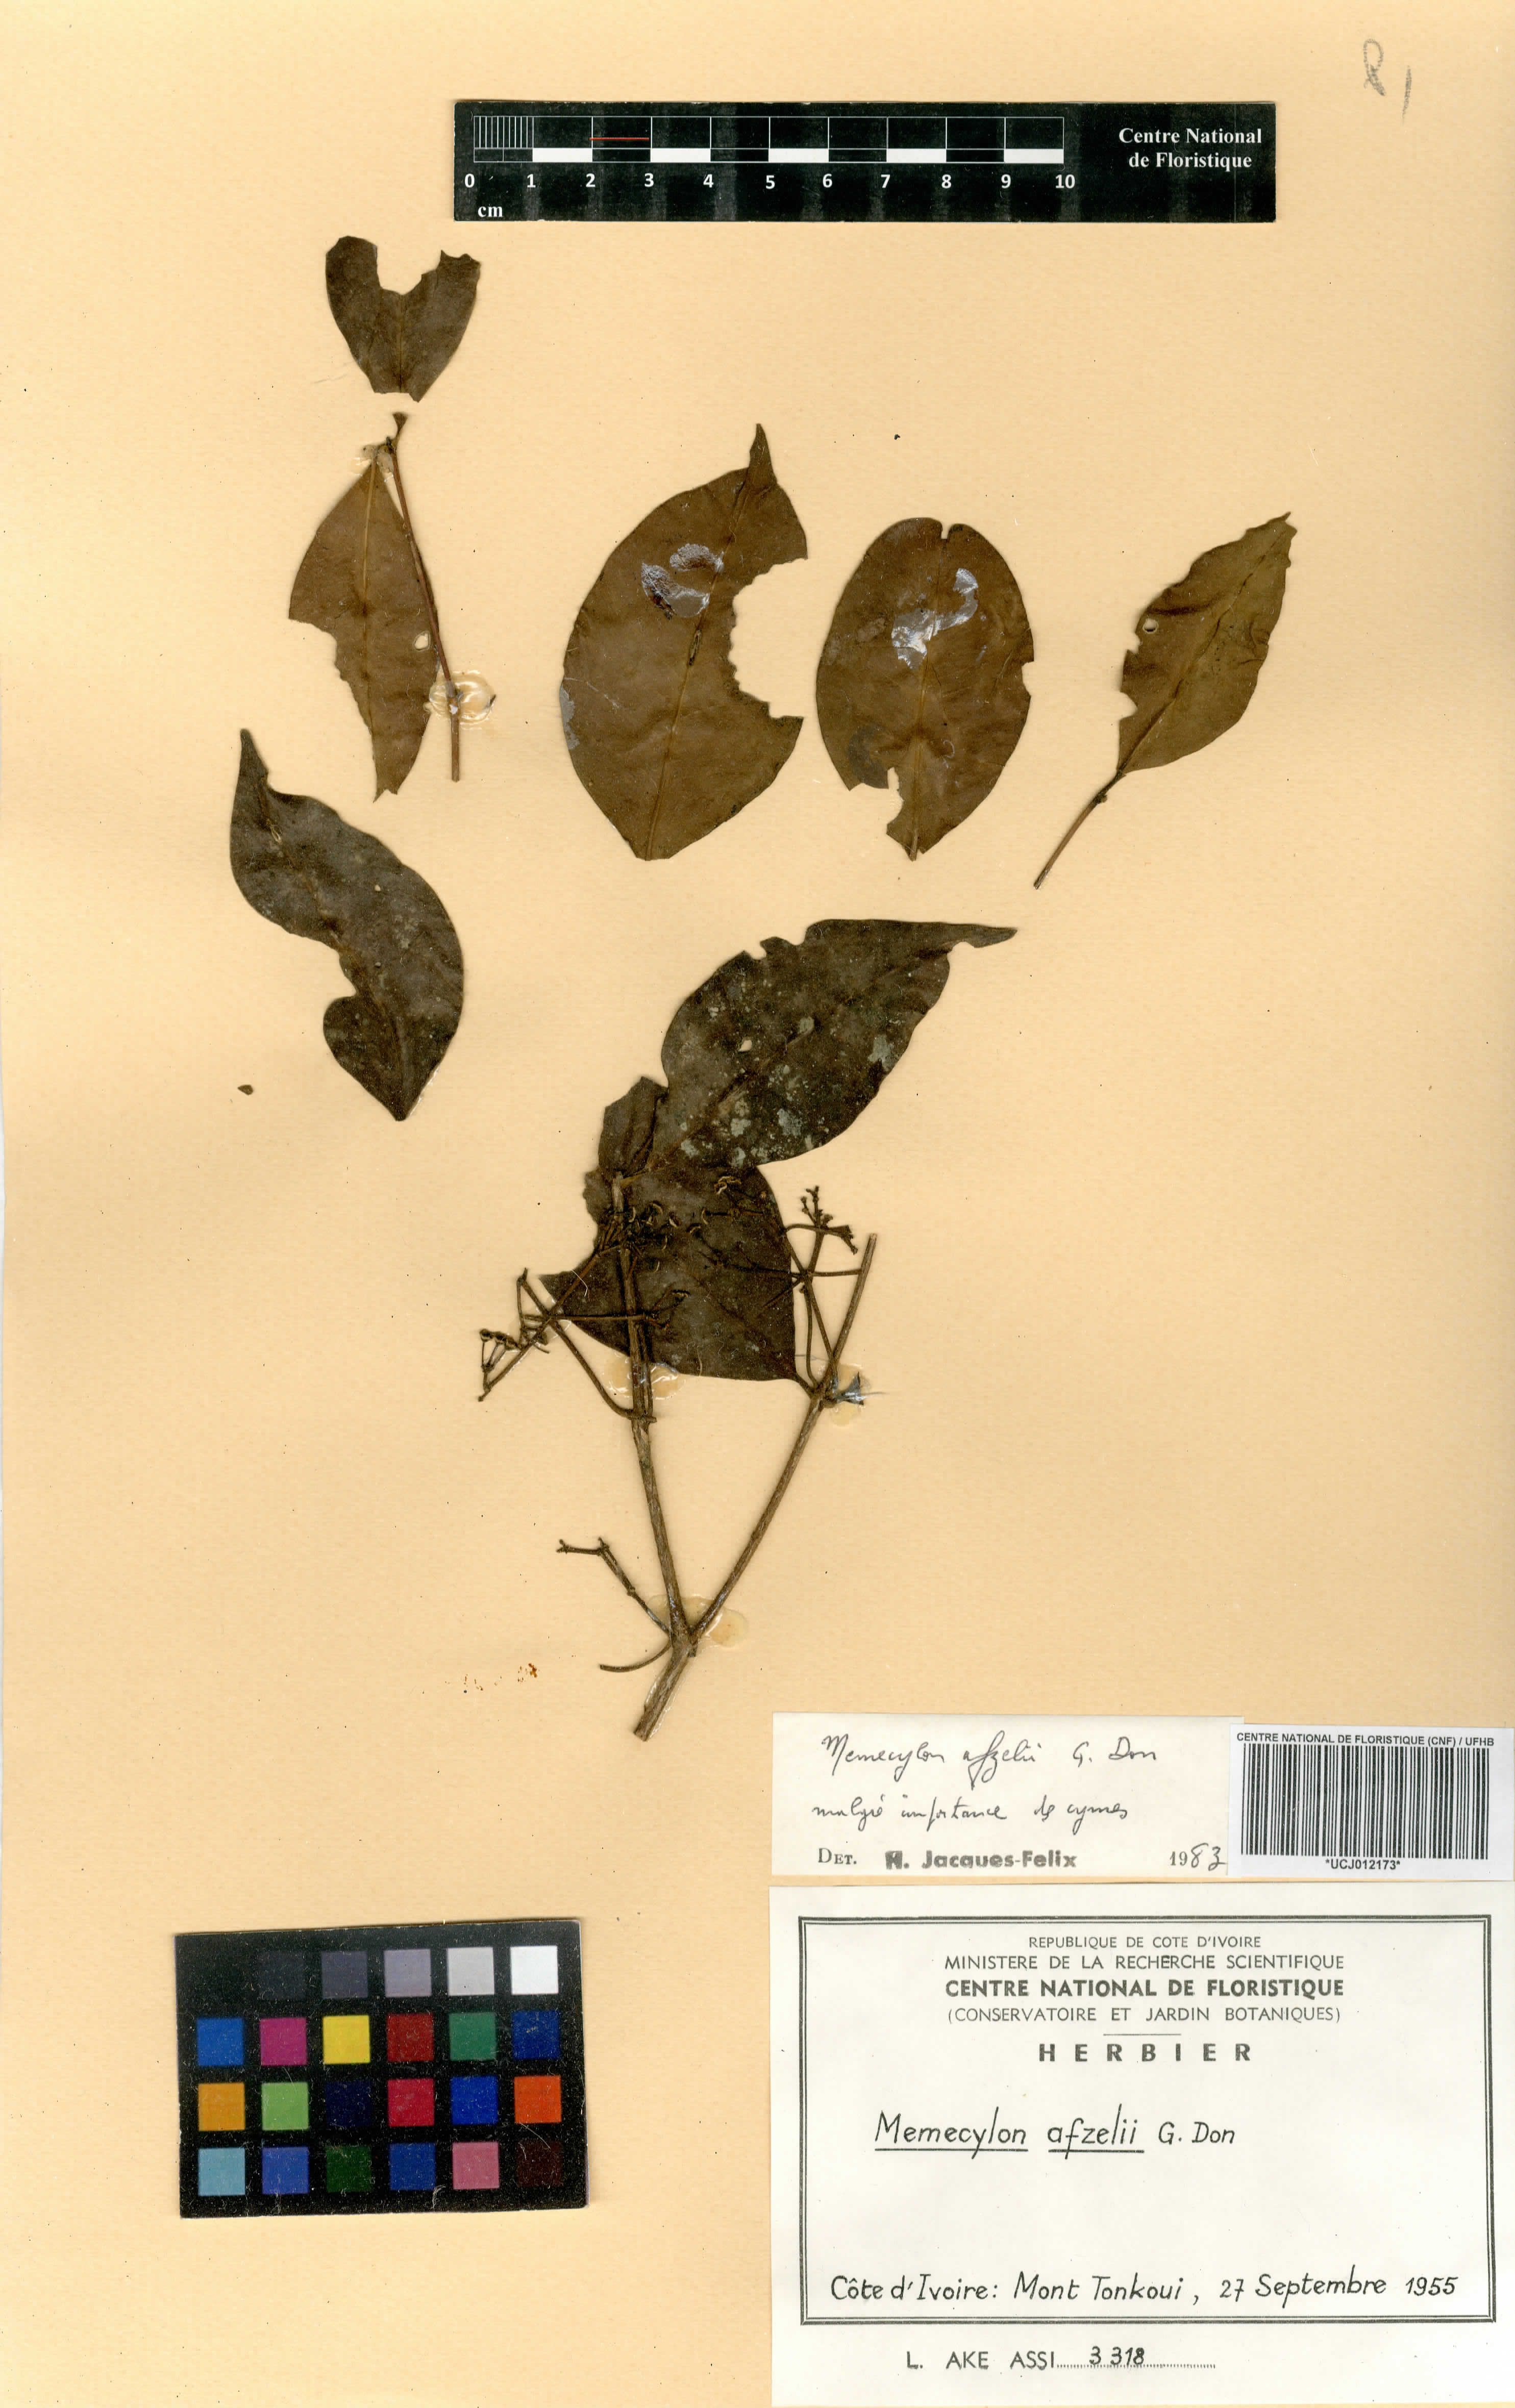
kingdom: Plantae
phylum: Tracheophyta
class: Magnoliopsida
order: Myrtales
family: Melastomataceae
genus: Memecylon
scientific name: Memecylon afzelii
